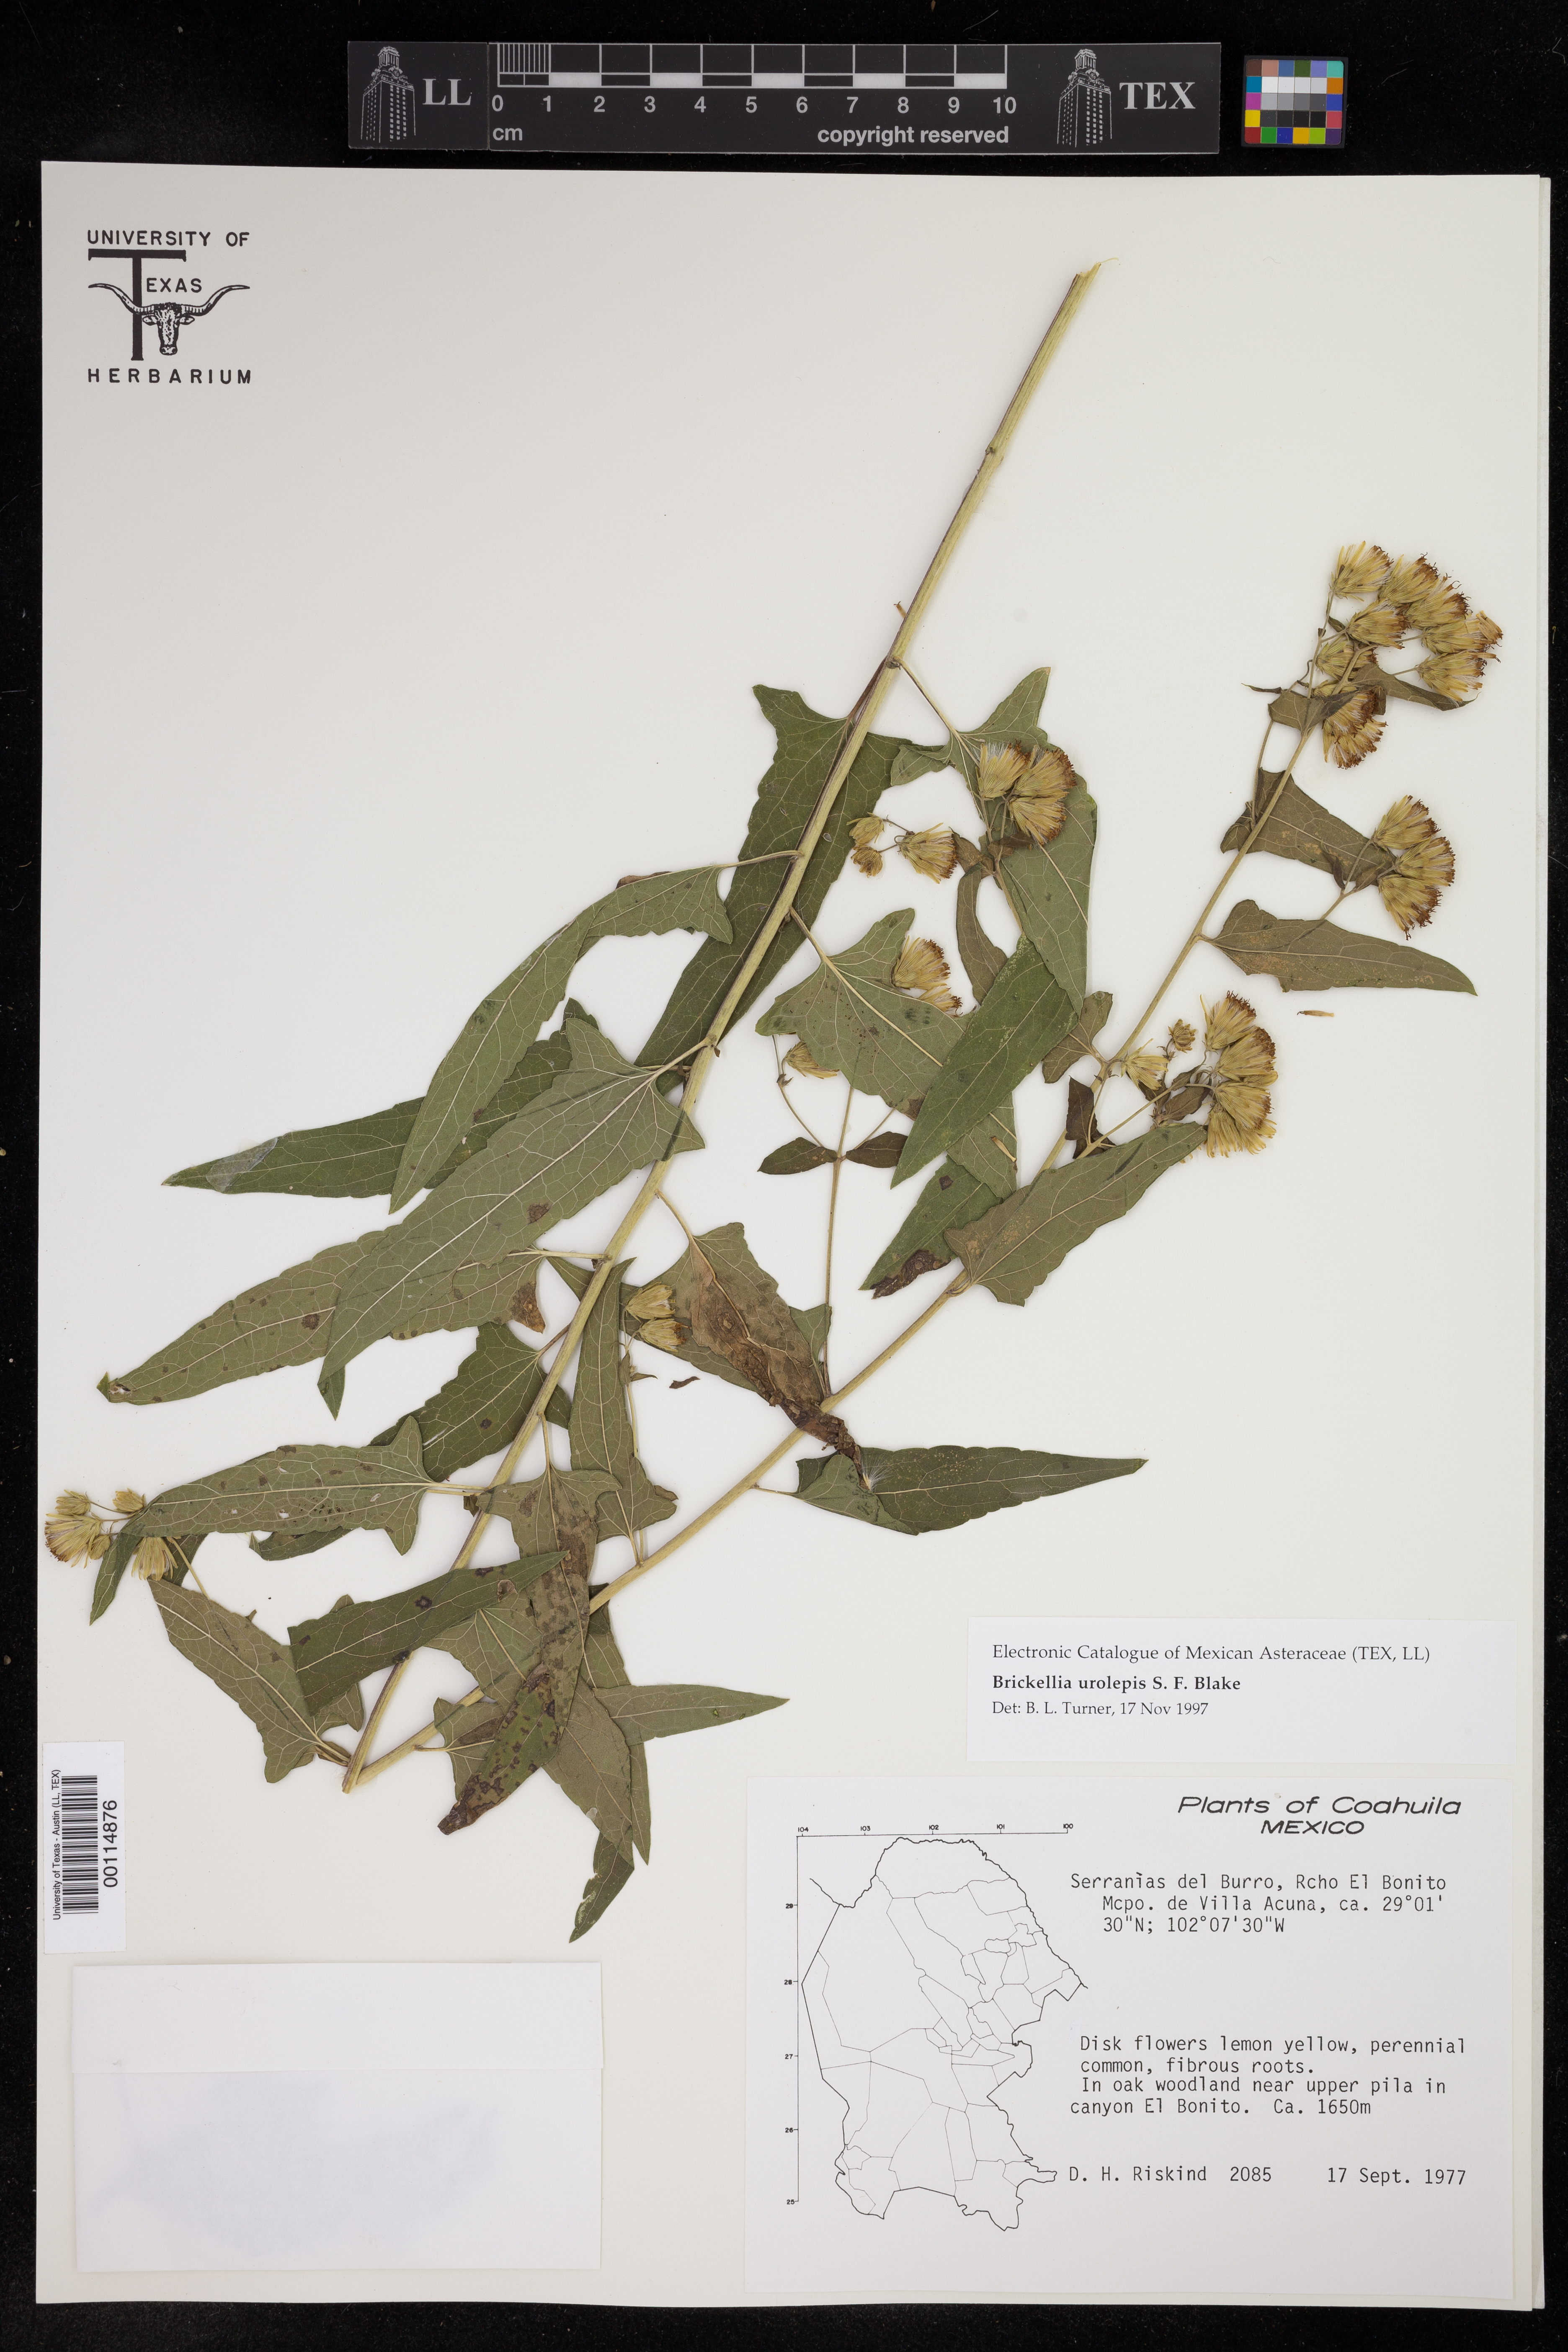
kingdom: Plantae
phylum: Tracheophyta
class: Magnoliopsida
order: Asterales
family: Asteraceae
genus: Brickellia
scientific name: Brickellia urolepis
